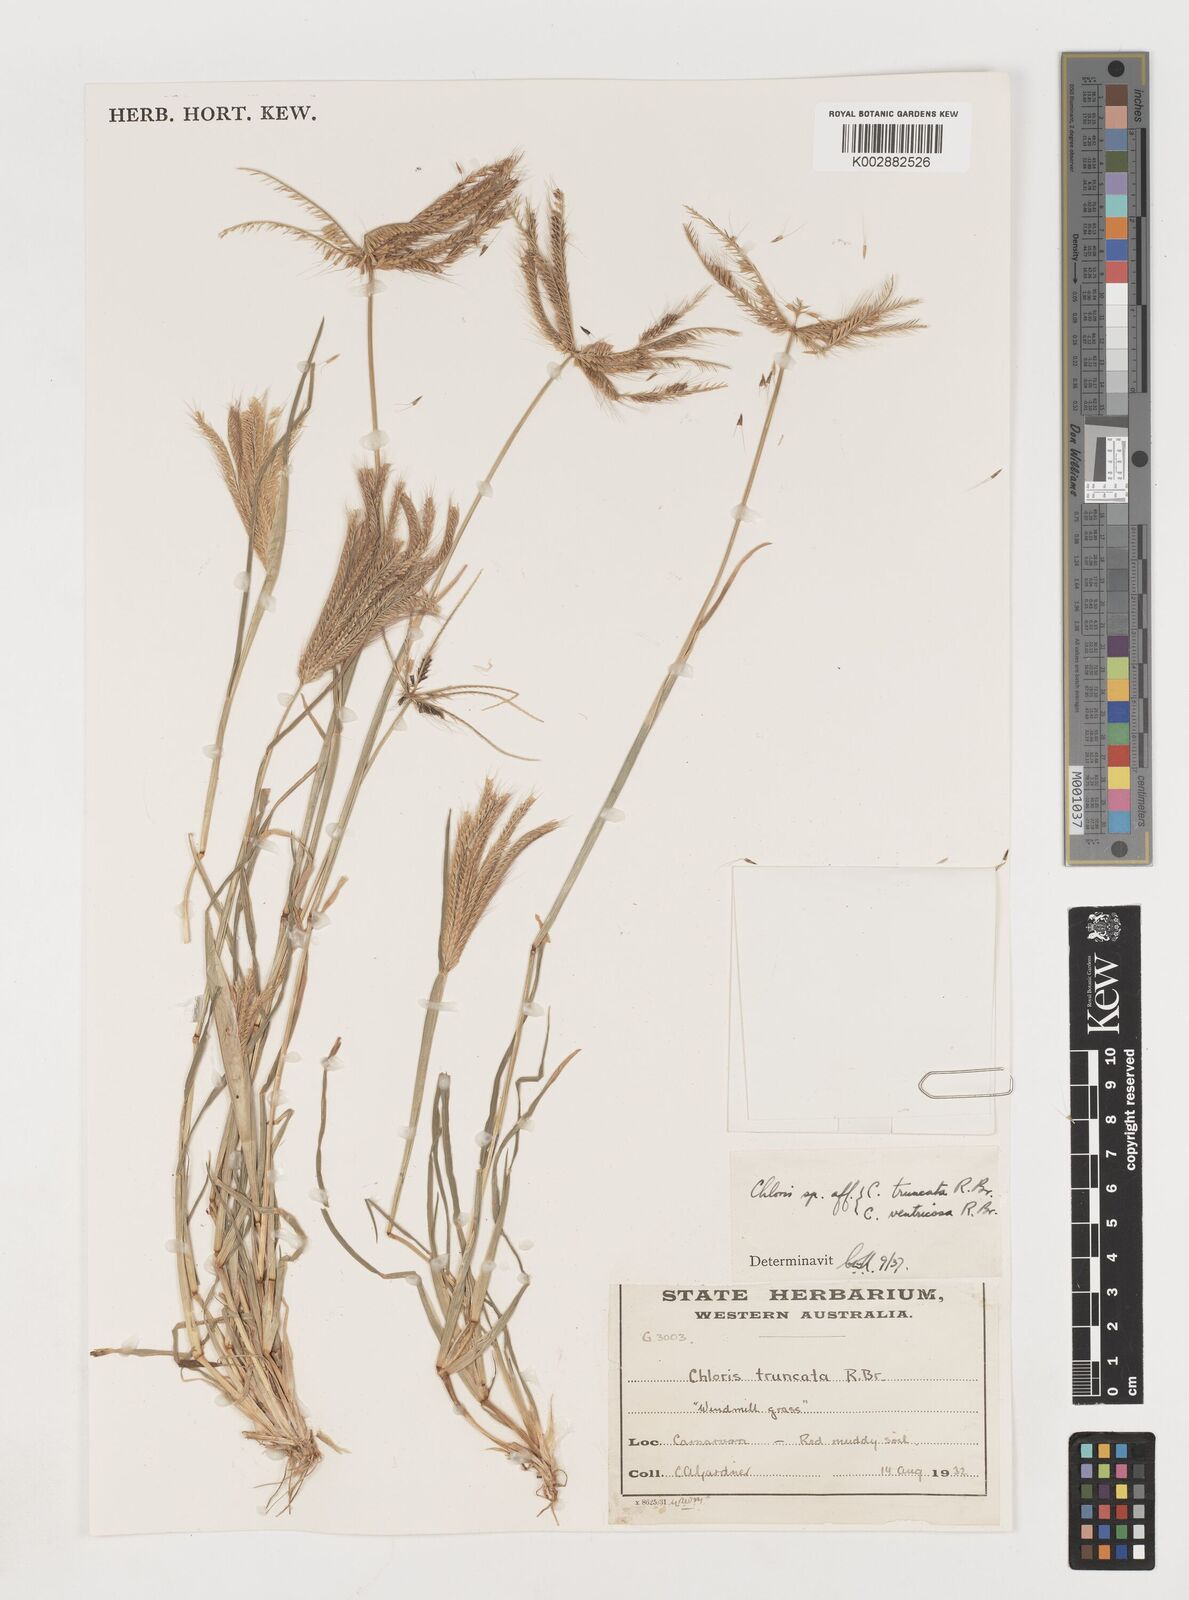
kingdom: Plantae
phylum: Tracheophyta
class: Liliopsida
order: Poales
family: Poaceae
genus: Chloris
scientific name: Chloris truncata
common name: Windmill-grass
